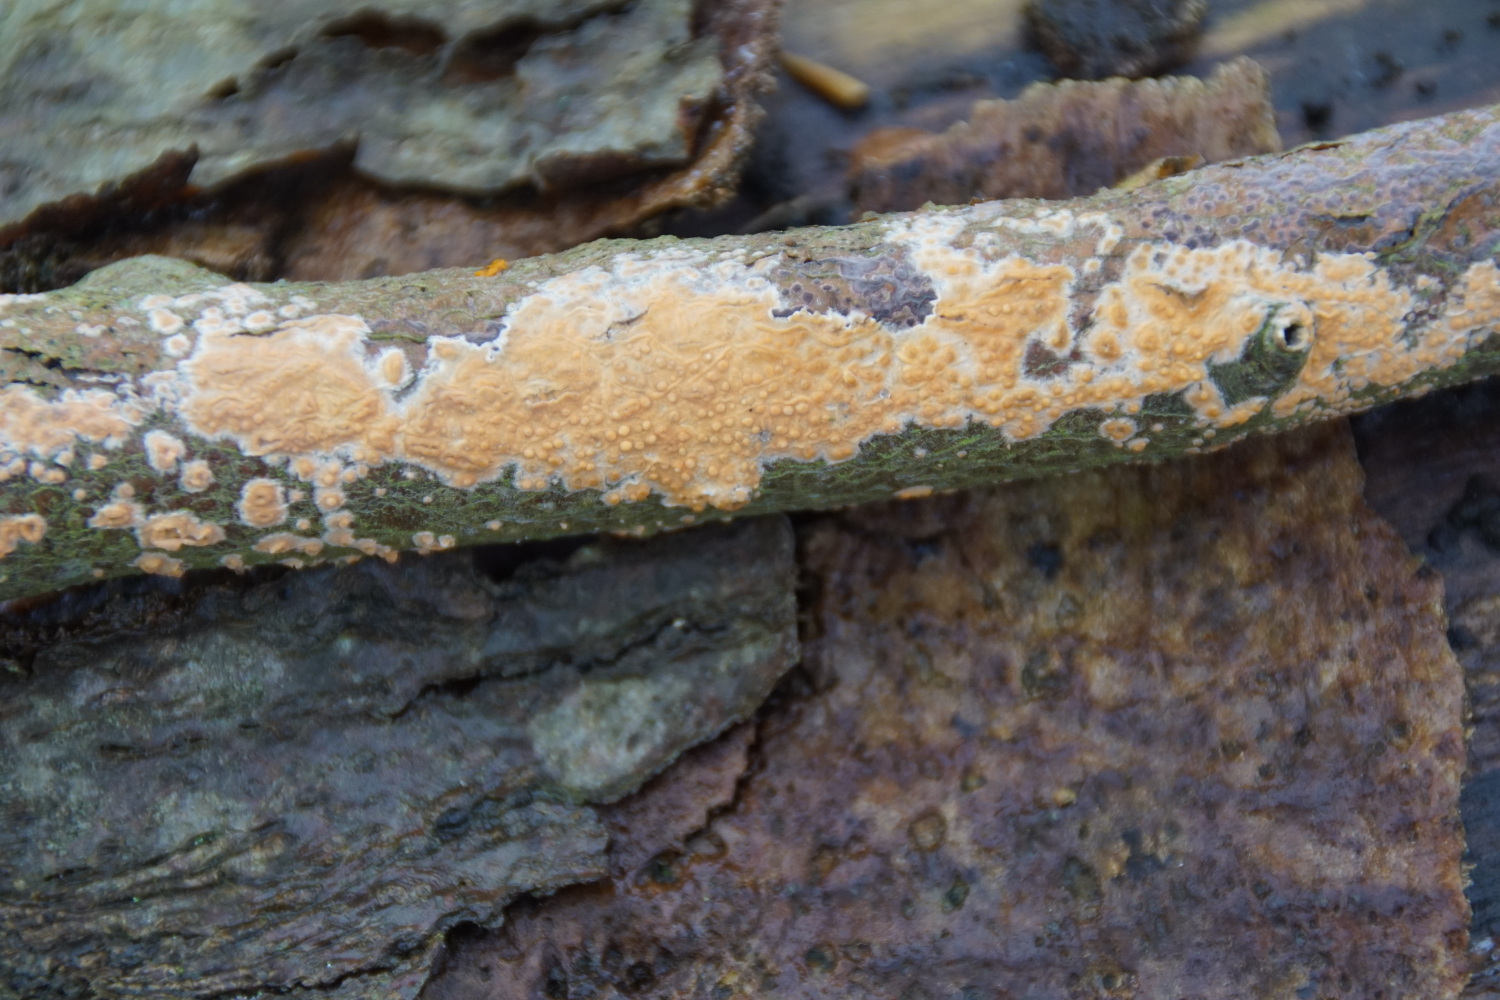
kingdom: Fungi
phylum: Basidiomycota
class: Agaricomycetes
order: Russulales
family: Peniophoraceae
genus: Peniophora
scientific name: Peniophora incarnata
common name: laksefarvet voksskind
